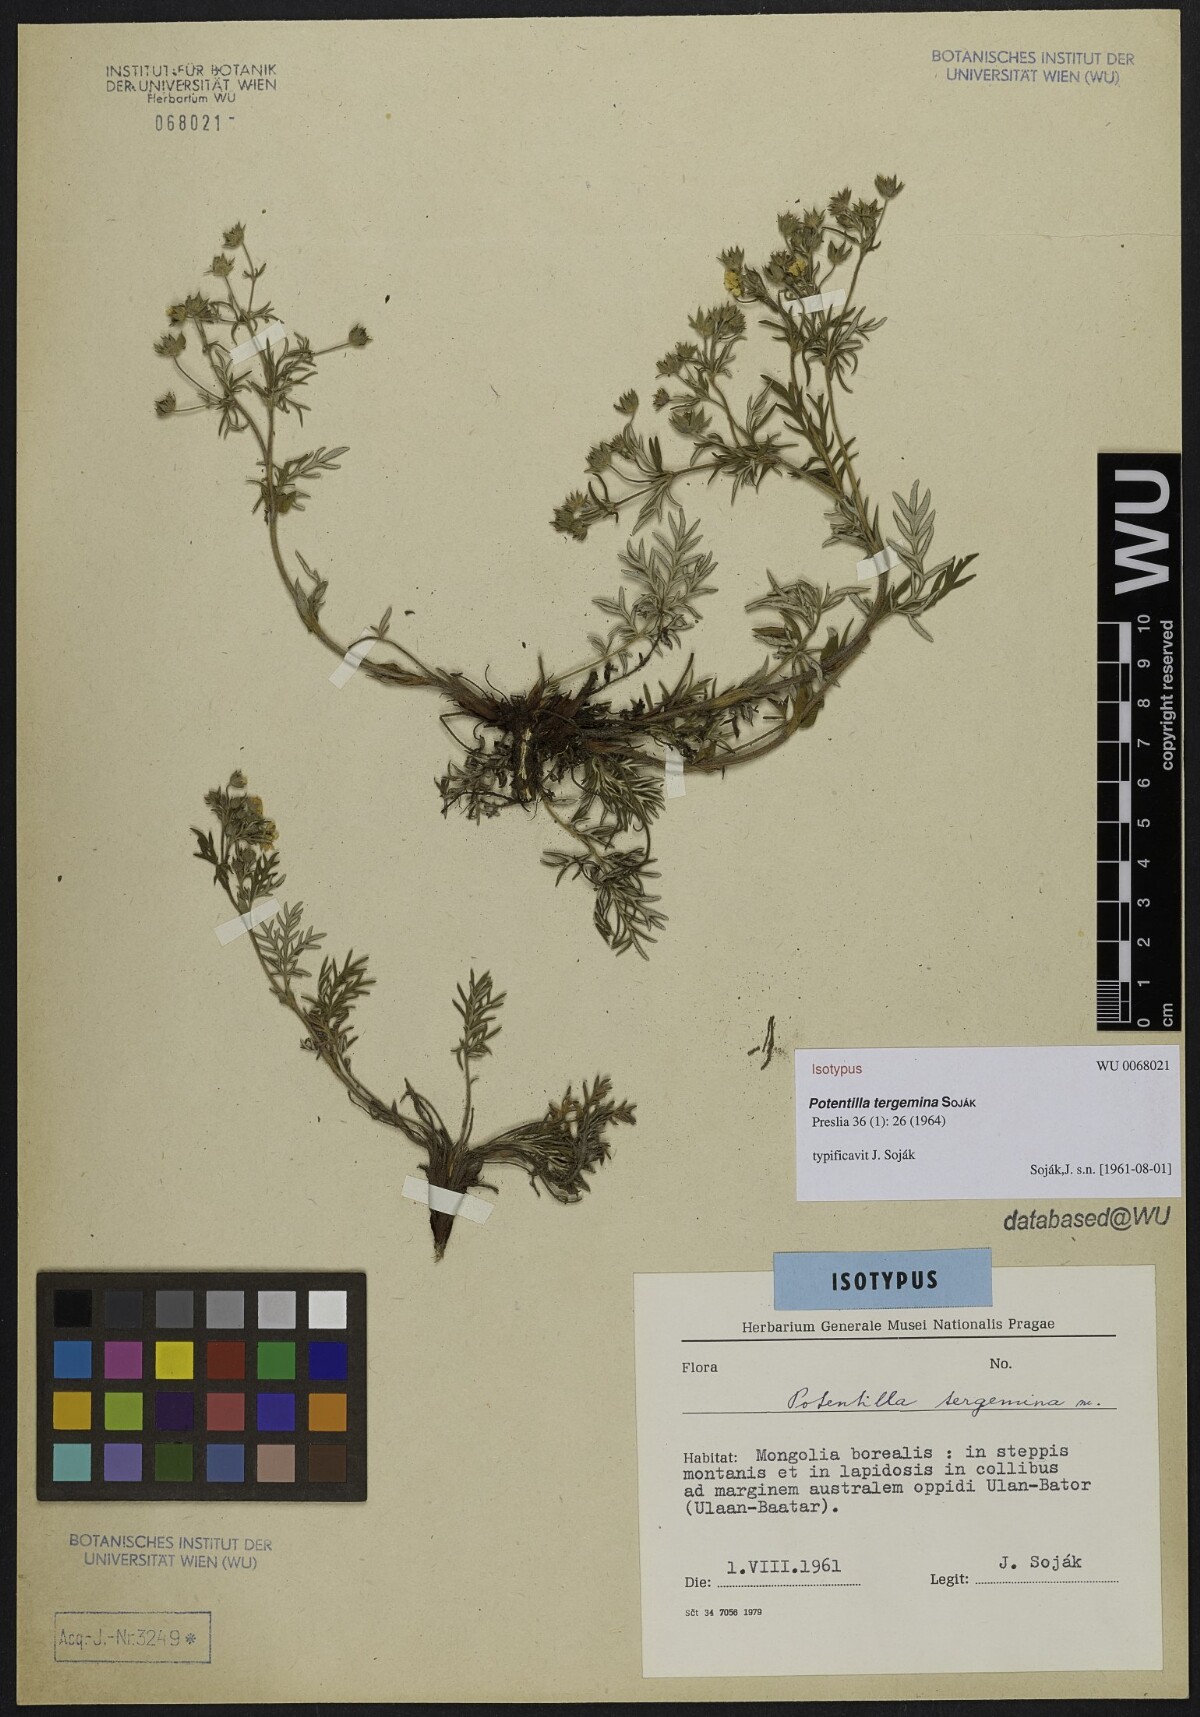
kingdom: Plantae
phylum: Tracheophyta
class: Magnoliopsida
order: Rosales
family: Rosaceae
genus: Potentilla
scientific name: Potentilla tergemina
